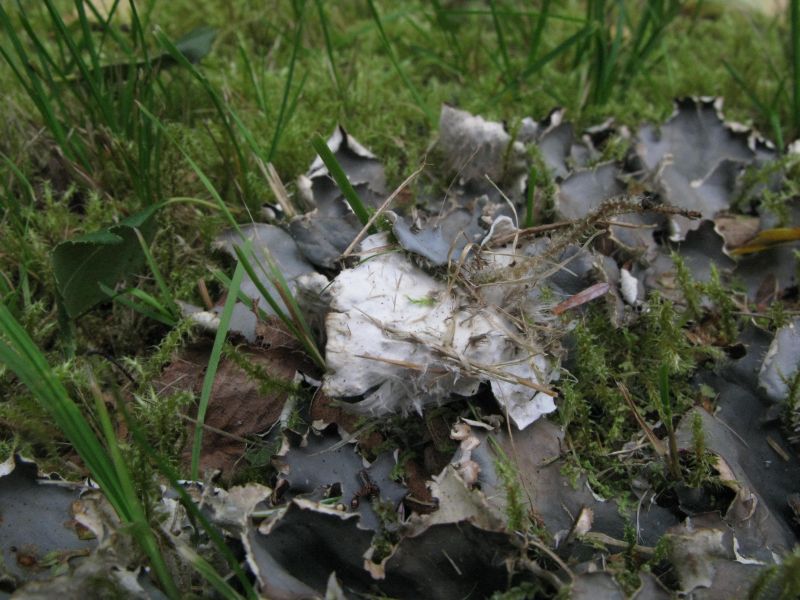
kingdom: Fungi
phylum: Ascomycota
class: Lecanoromycetes
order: Peltigerales
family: Peltigeraceae
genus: Peltigera
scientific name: Peltigera hymenina
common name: hinde-skjoldlav
